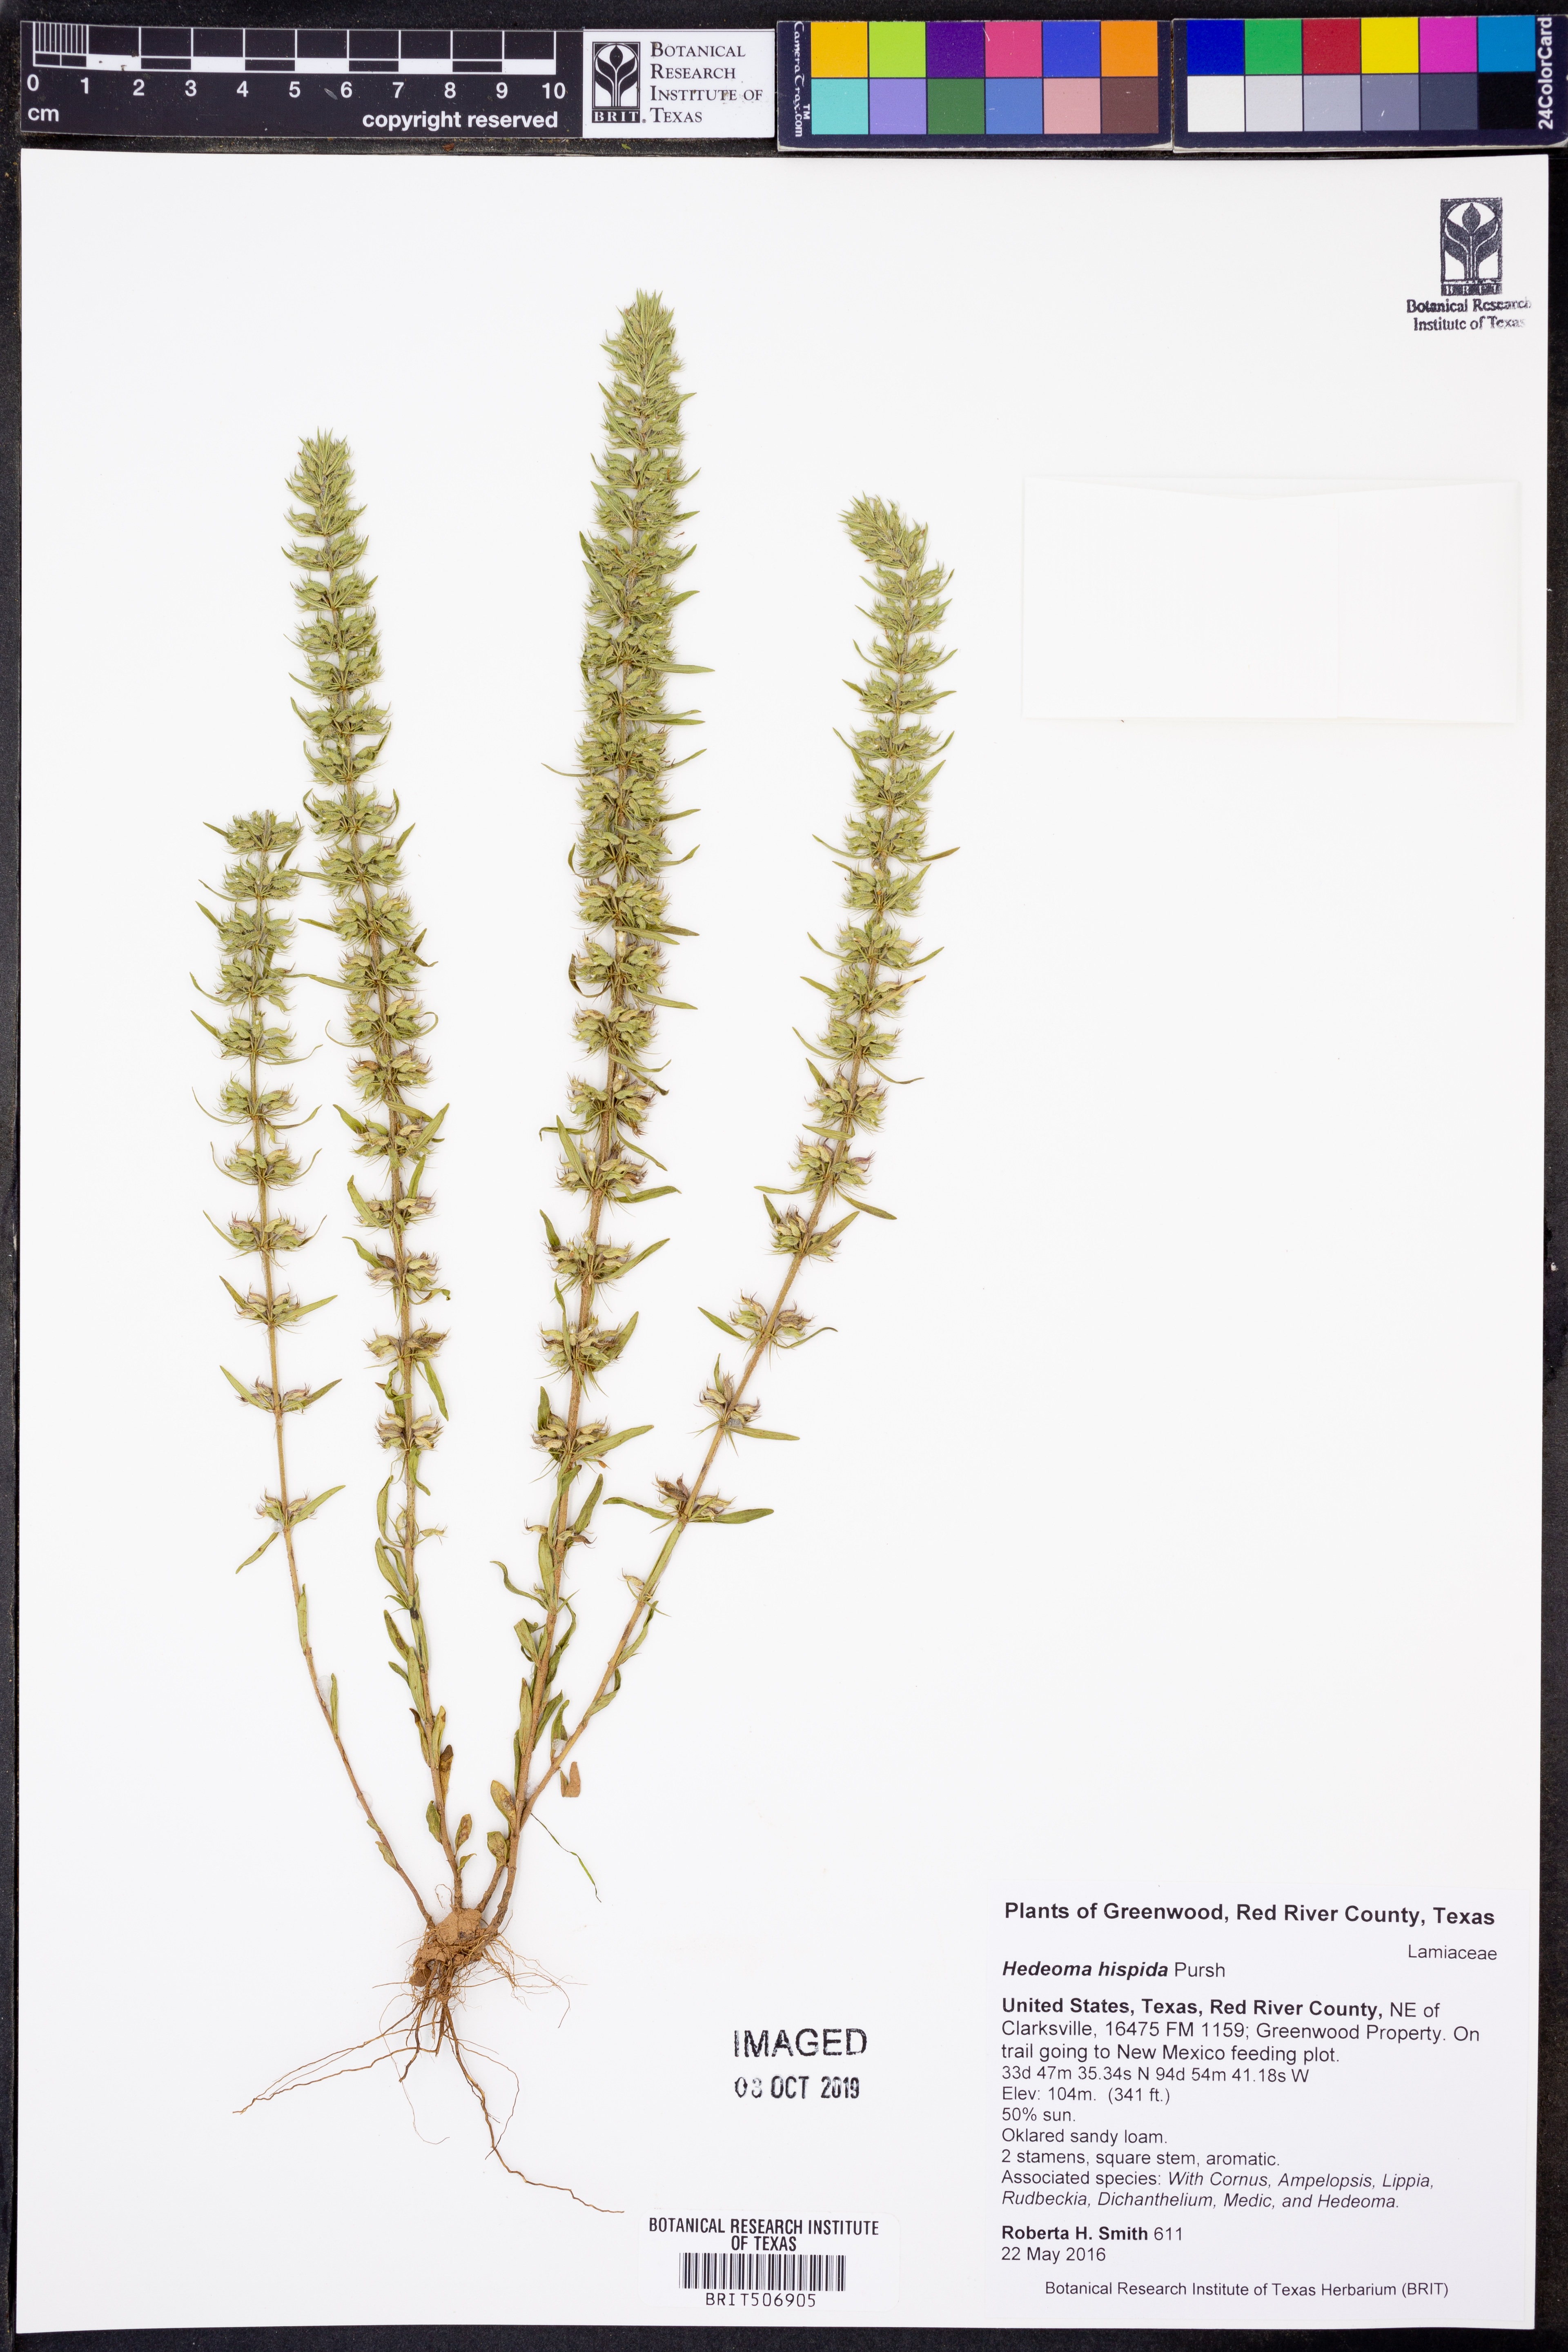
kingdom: Plantae
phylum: Tracheophyta
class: Magnoliopsida
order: Lamiales
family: Lamiaceae
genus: Hedeoma
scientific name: Hedeoma hispida
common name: Mock pennyroyal
